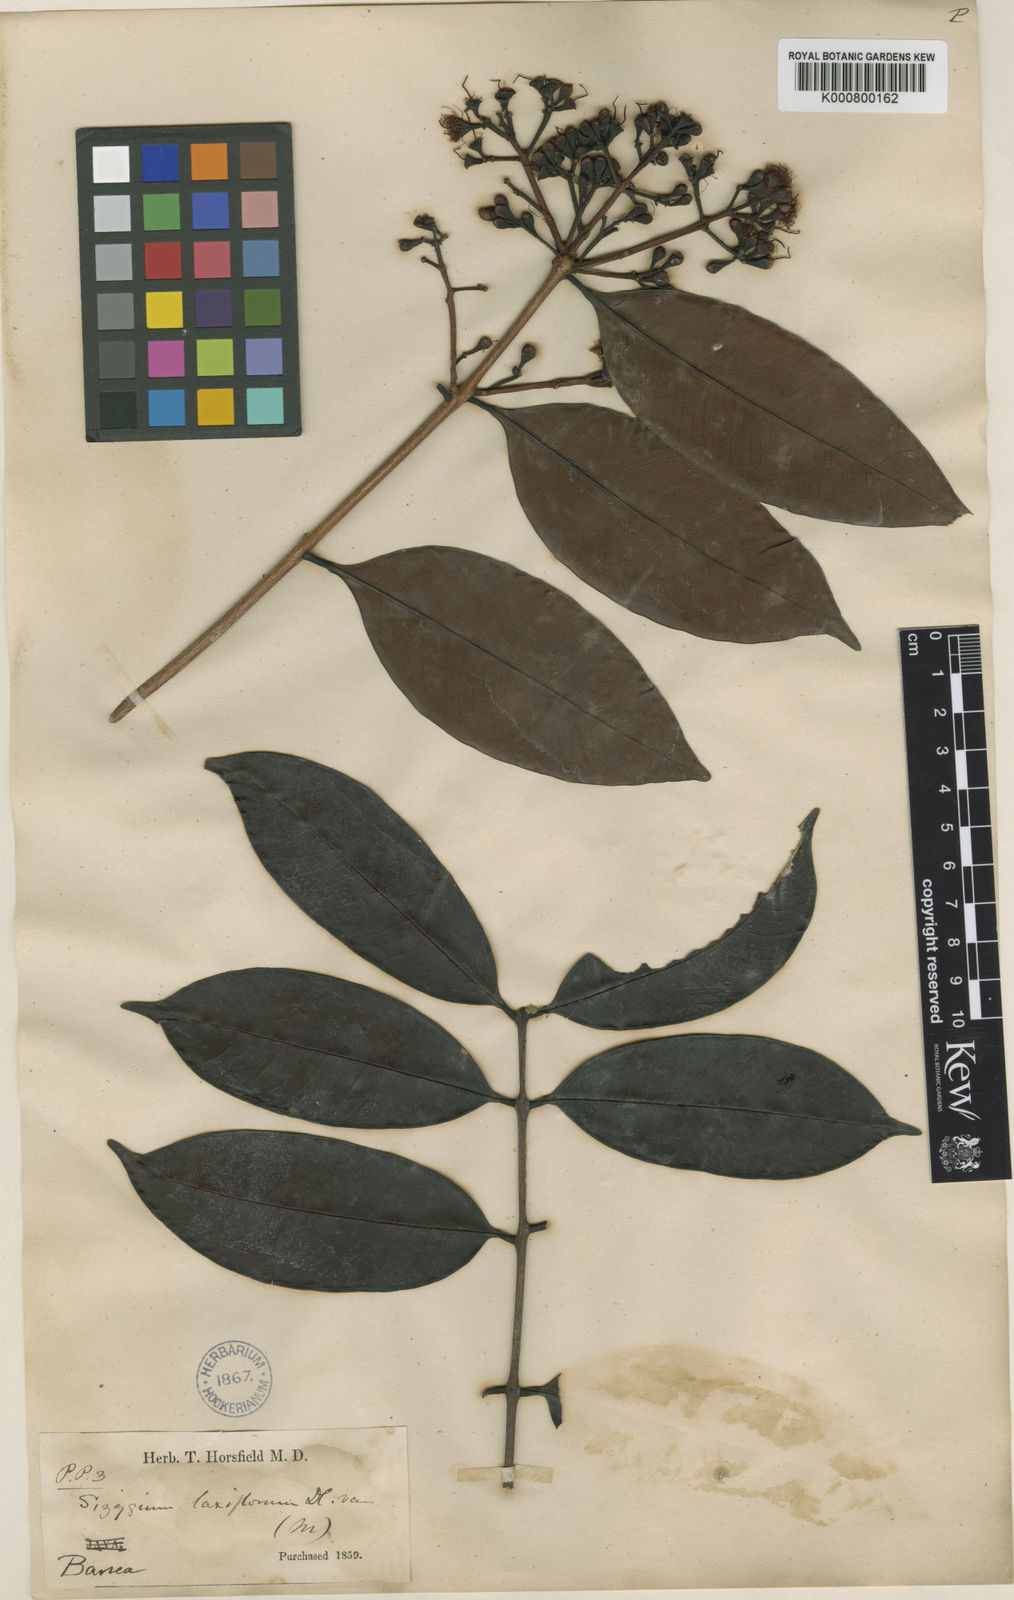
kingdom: Plantae
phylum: Tracheophyta
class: Magnoliopsida
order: Myrtales
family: Myrtaceae
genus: Syzygium
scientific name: Syzygium laxiflorum
